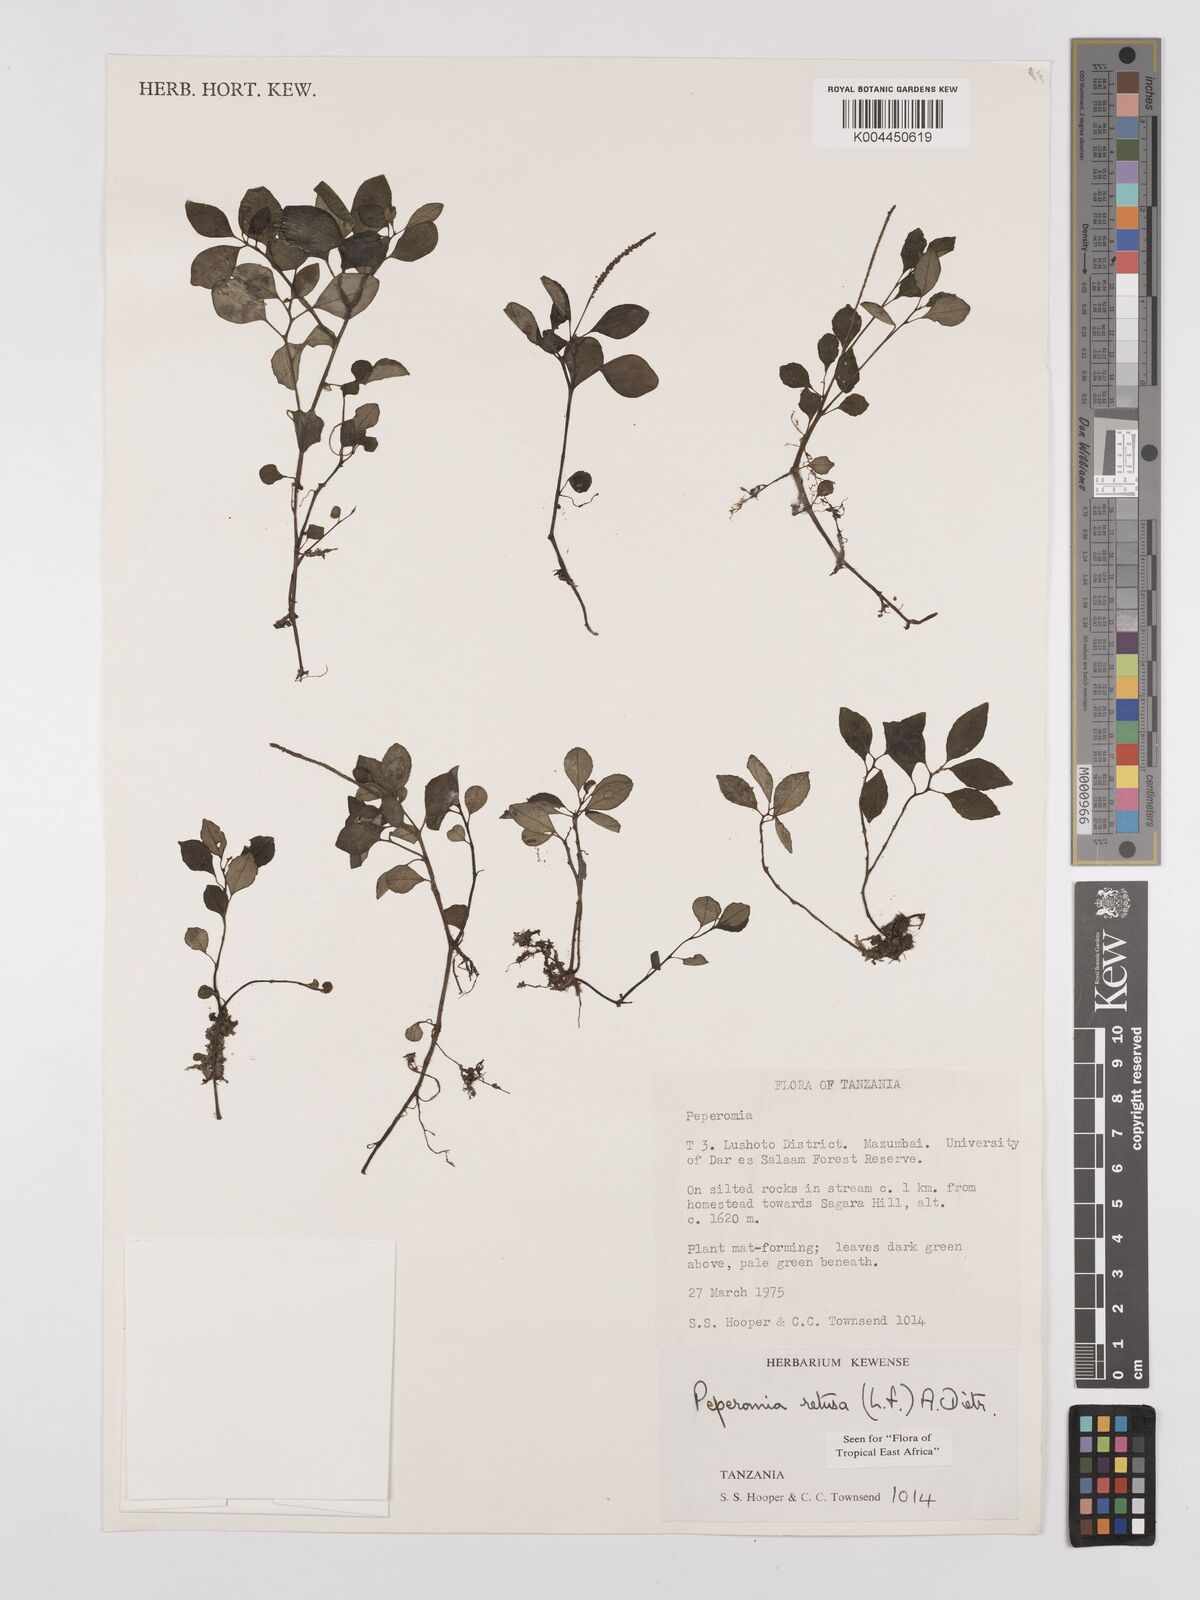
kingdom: Plantae
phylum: Tracheophyta
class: Magnoliopsida
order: Piperales
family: Piperaceae
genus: Peperomia
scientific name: Peperomia retusa
